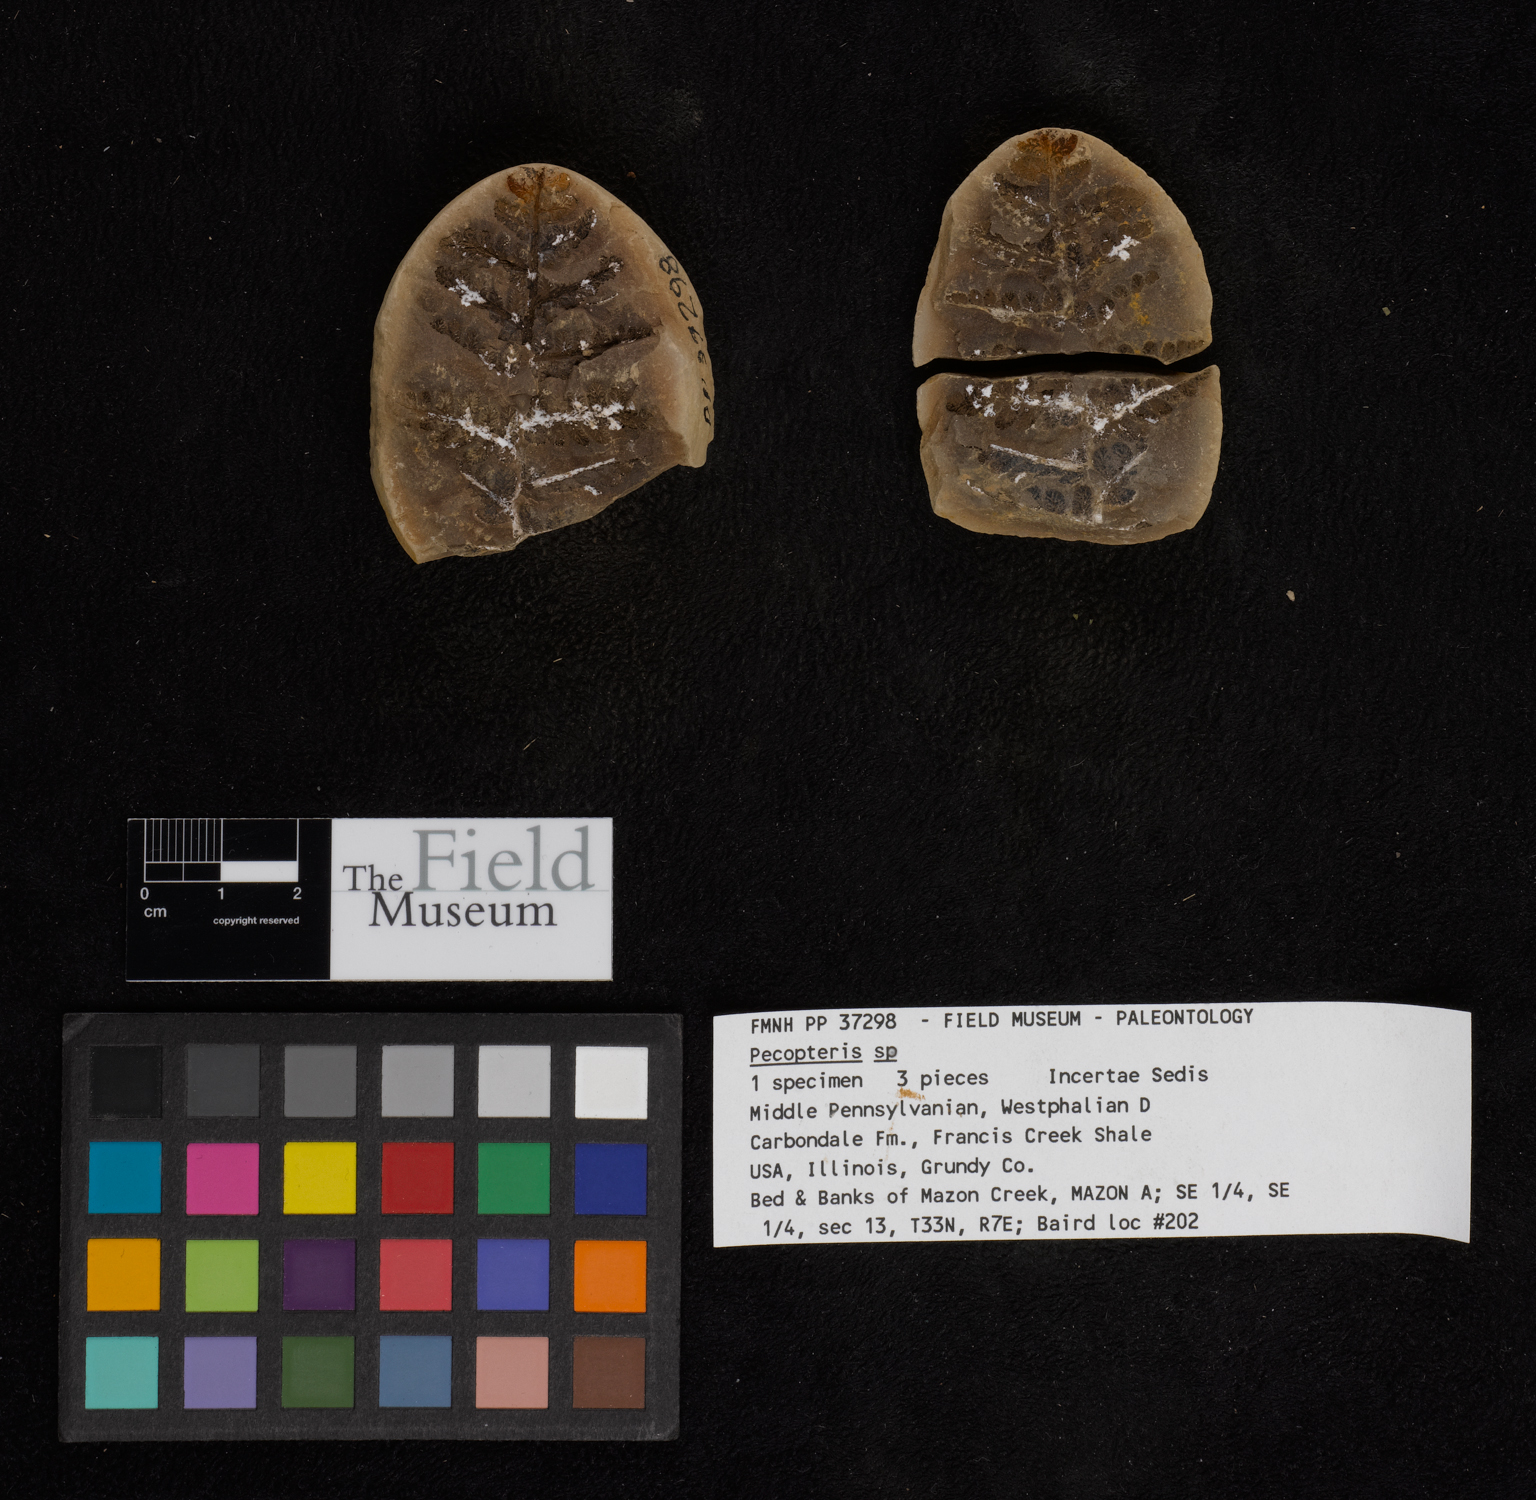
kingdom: Plantae
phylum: Tracheophyta
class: Polypodiopsida
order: Marattiales
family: Asterothecaceae
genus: Pecopteris
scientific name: Pecopteris
